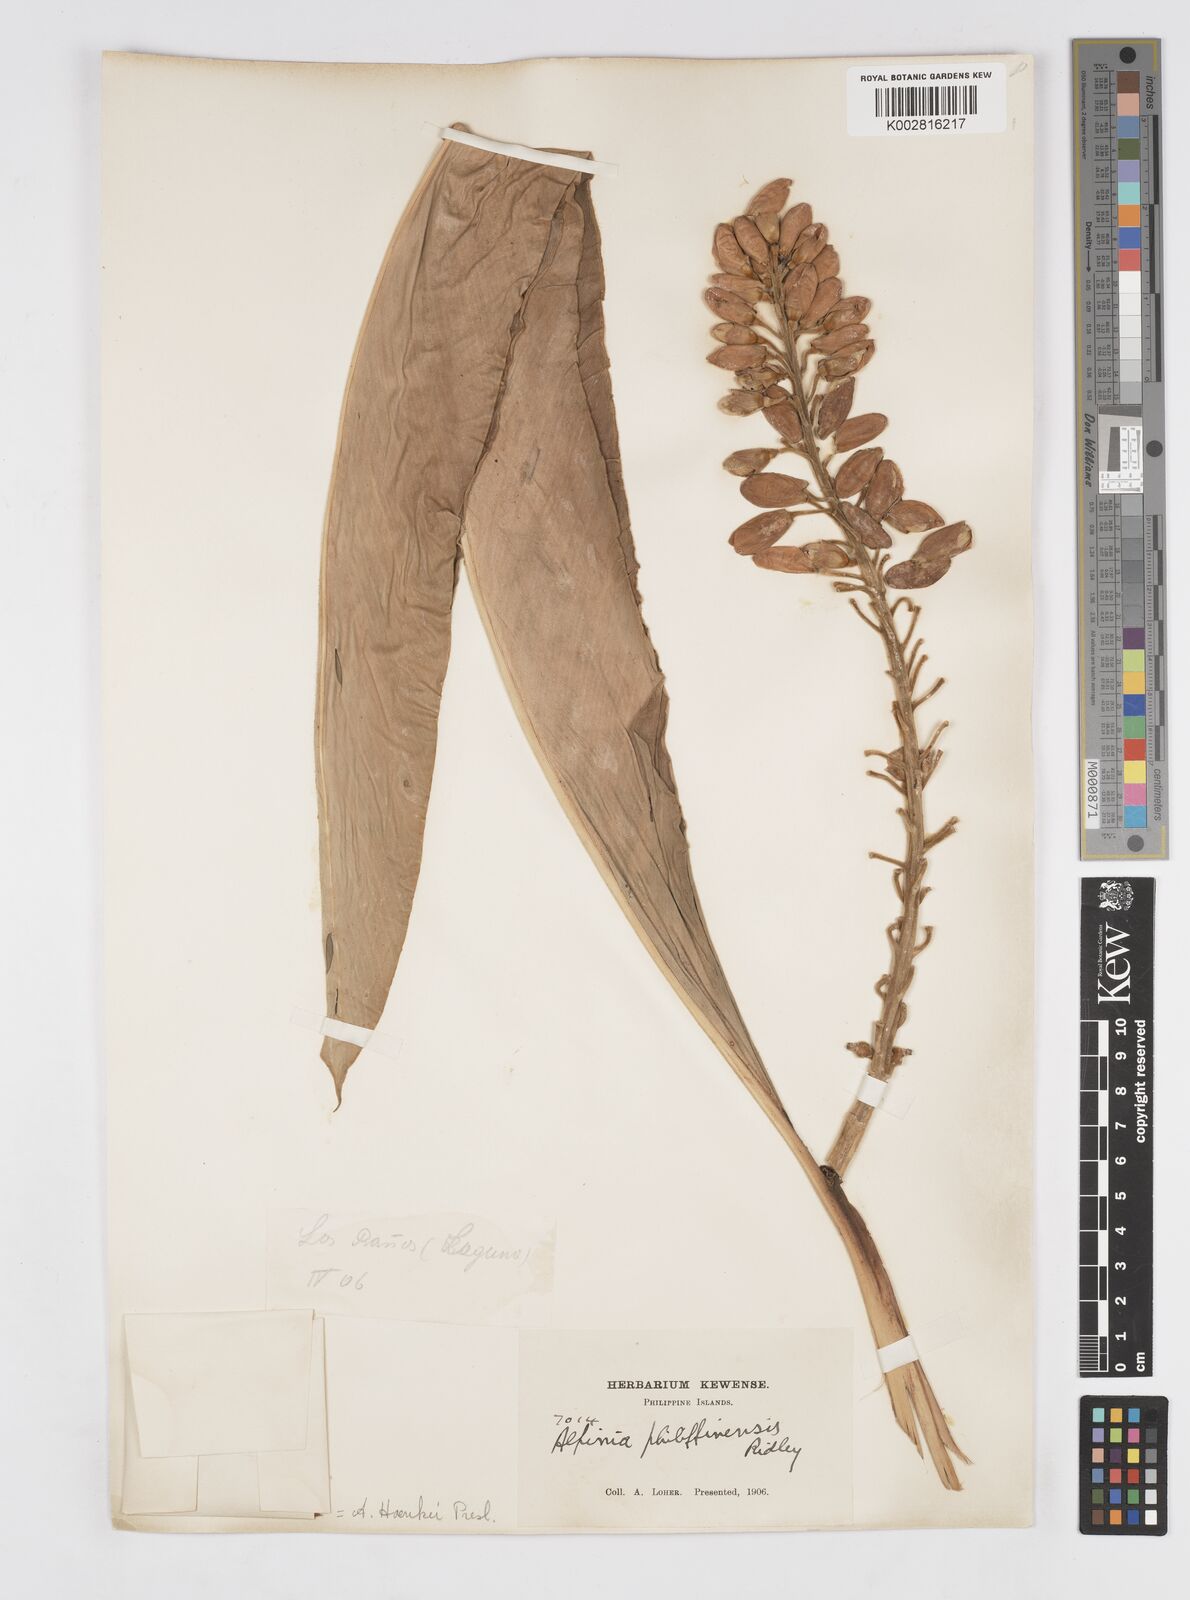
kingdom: Plantae
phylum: Tracheophyta
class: Liliopsida
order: Zingiberales
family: Zingiberaceae
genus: Alpinia
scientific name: Alpinia haenkei
